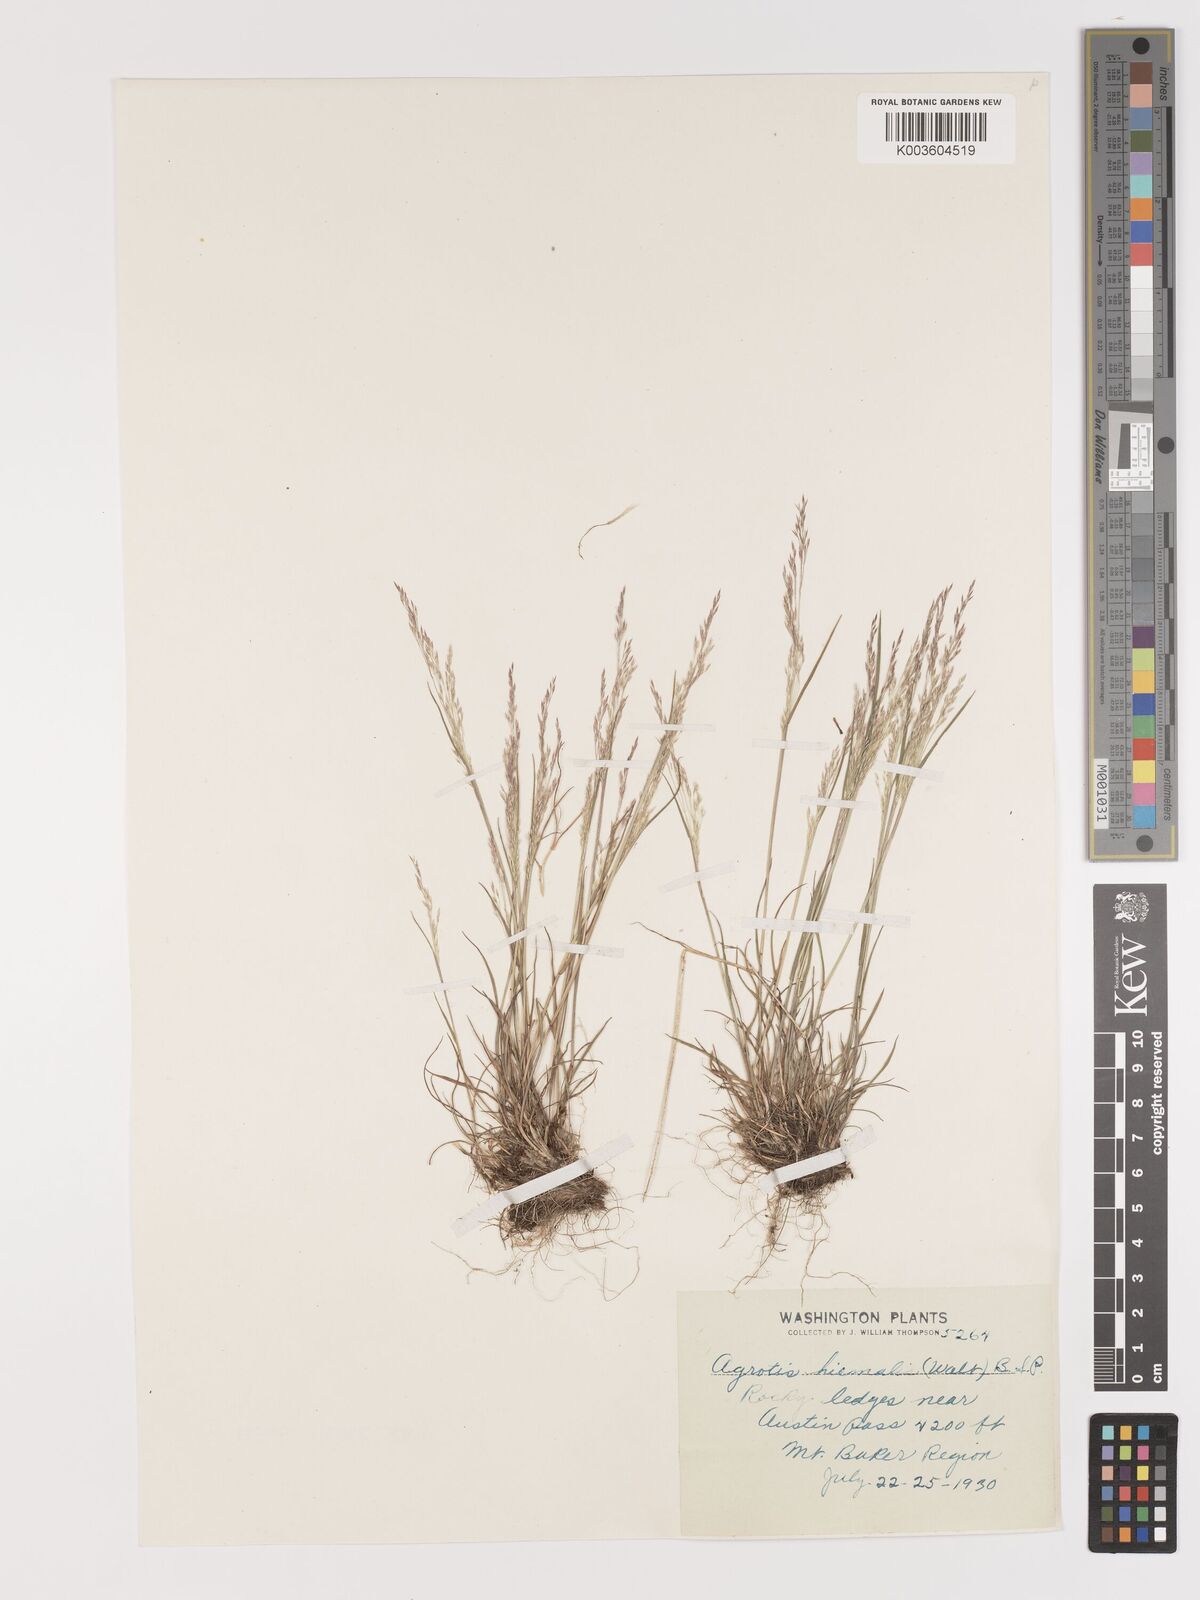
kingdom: Plantae
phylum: Tracheophyta
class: Liliopsida
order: Poales
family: Poaceae
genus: Agrostis
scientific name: Agrostis hyemalis
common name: Small bent
